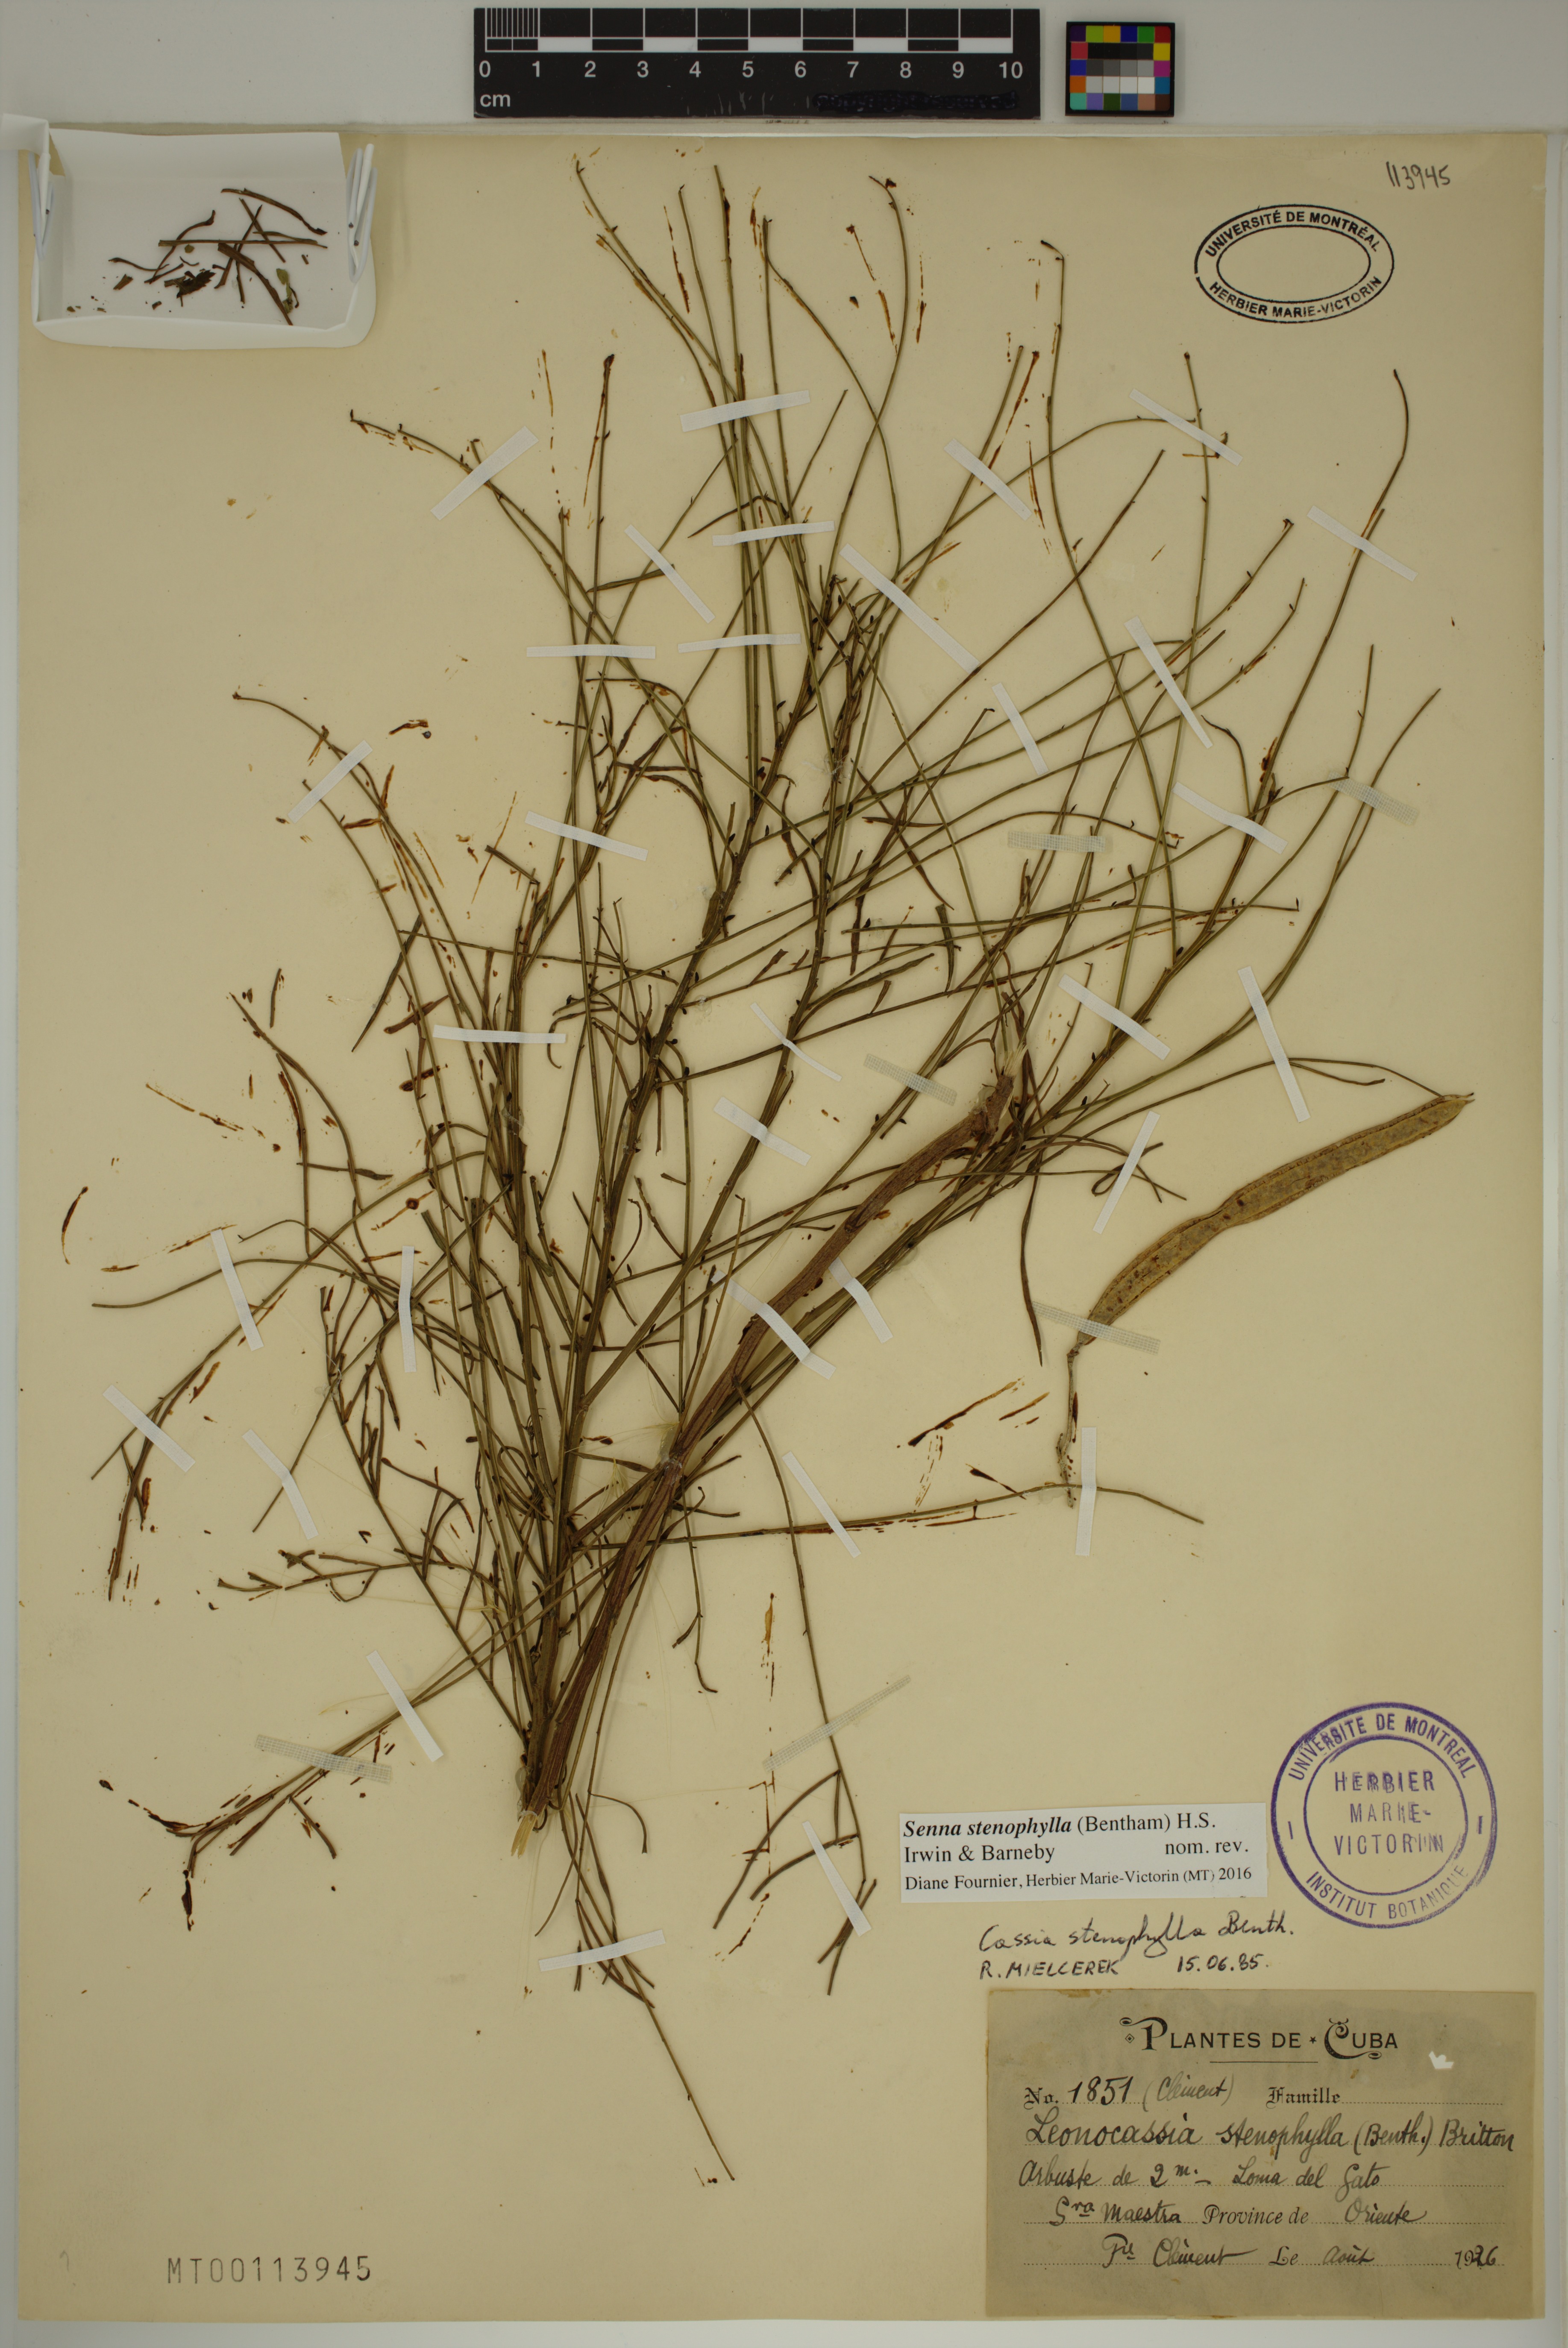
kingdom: Plantae
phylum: Tracheophyta
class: Magnoliopsida
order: Fabales
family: Fabaceae
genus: Senna
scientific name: Senna stenophylla
